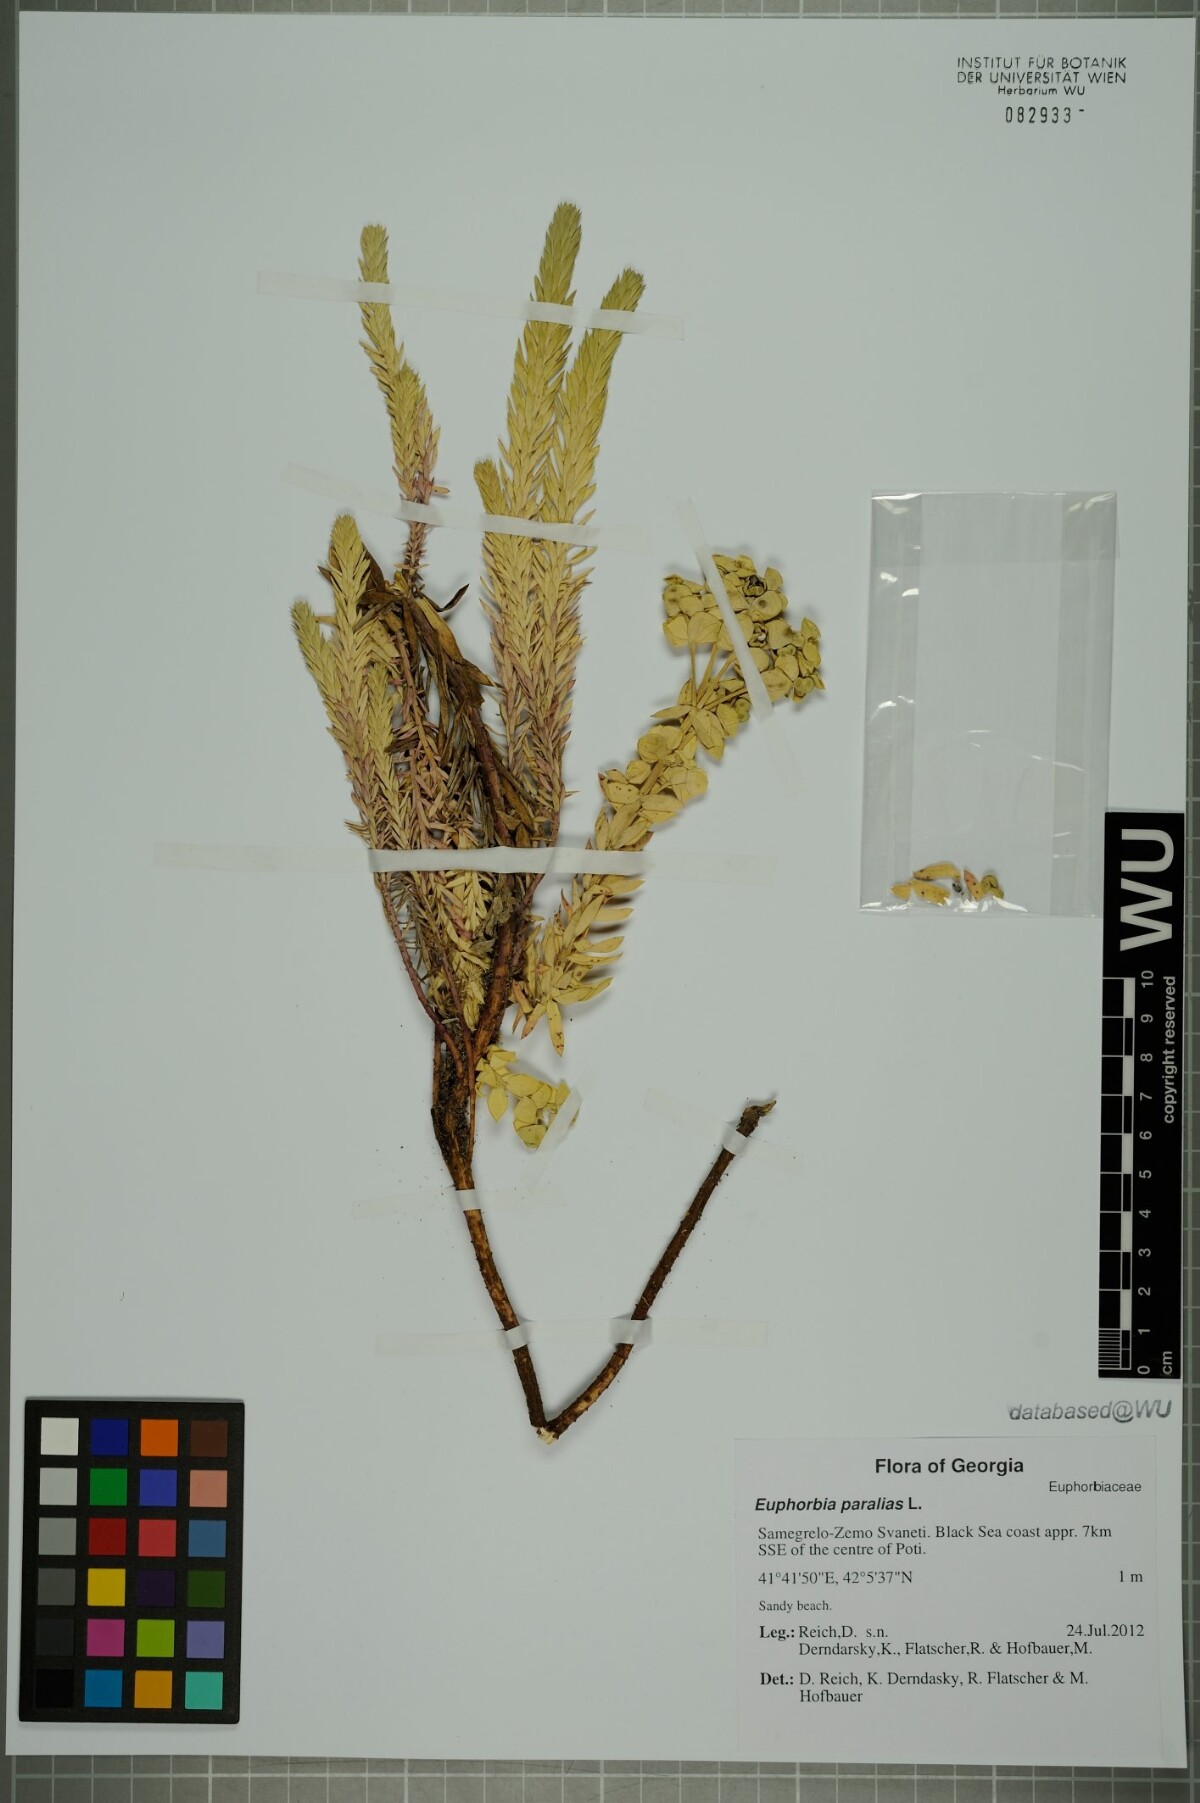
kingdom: Plantae
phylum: Tracheophyta
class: Magnoliopsida
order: Malpighiales
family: Euphorbiaceae
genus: Euphorbia
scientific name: Euphorbia paralias
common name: Sea spurge
